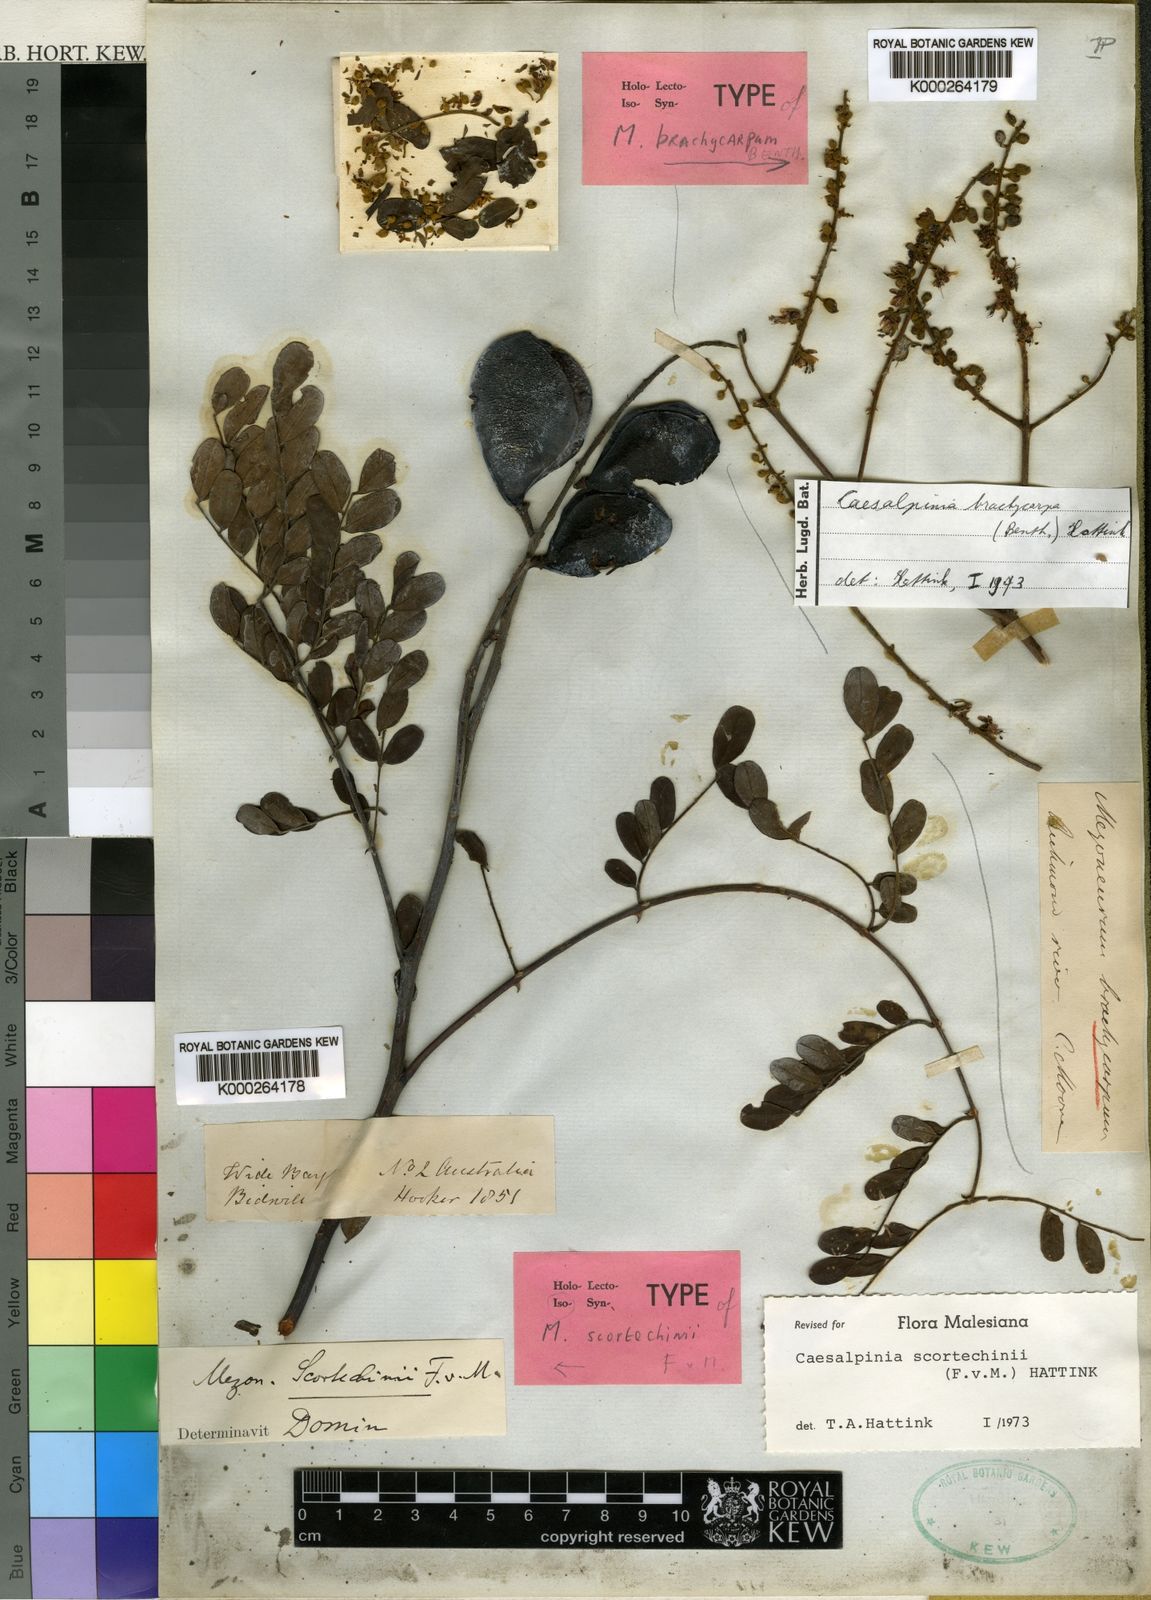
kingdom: Plantae
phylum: Tracheophyta
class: Magnoliopsida
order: Fabales
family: Fabaceae
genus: Mezoneuron
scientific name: Mezoneuron scortechinii
